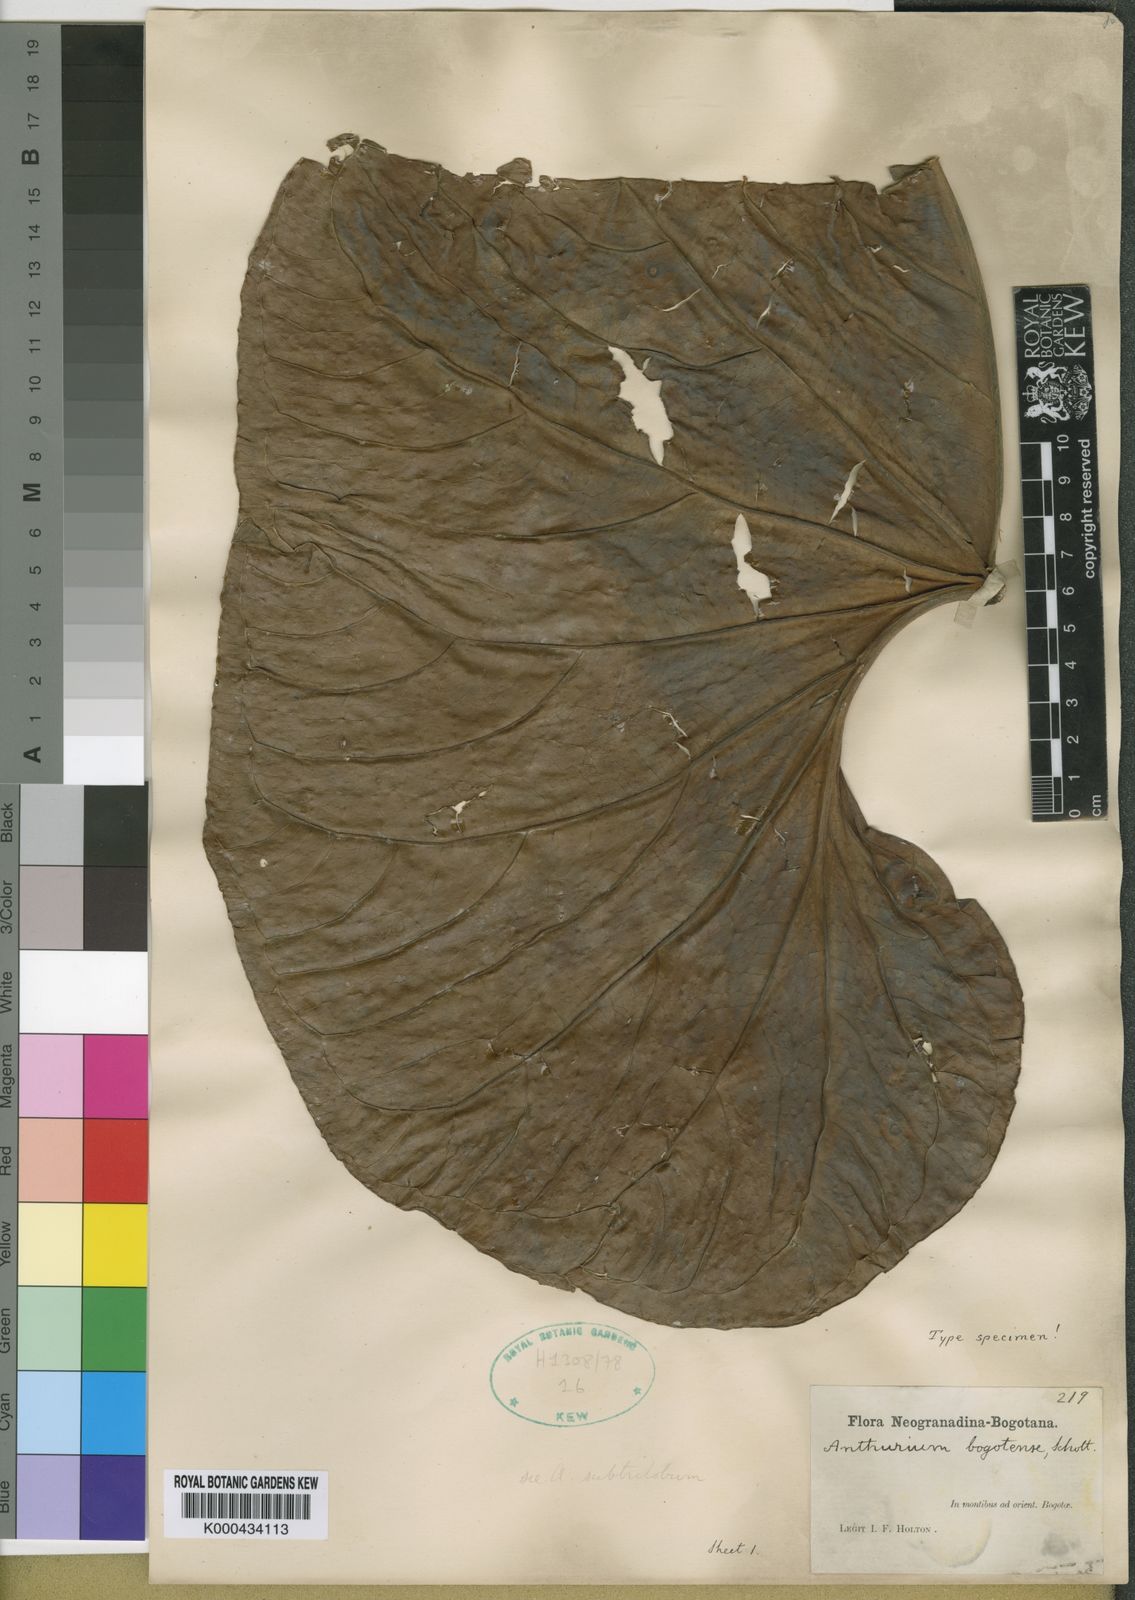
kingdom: Plantae
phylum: Tracheophyta
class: Liliopsida
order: Alismatales
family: Araceae
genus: Anthurium
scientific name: Anthurium bogotense
